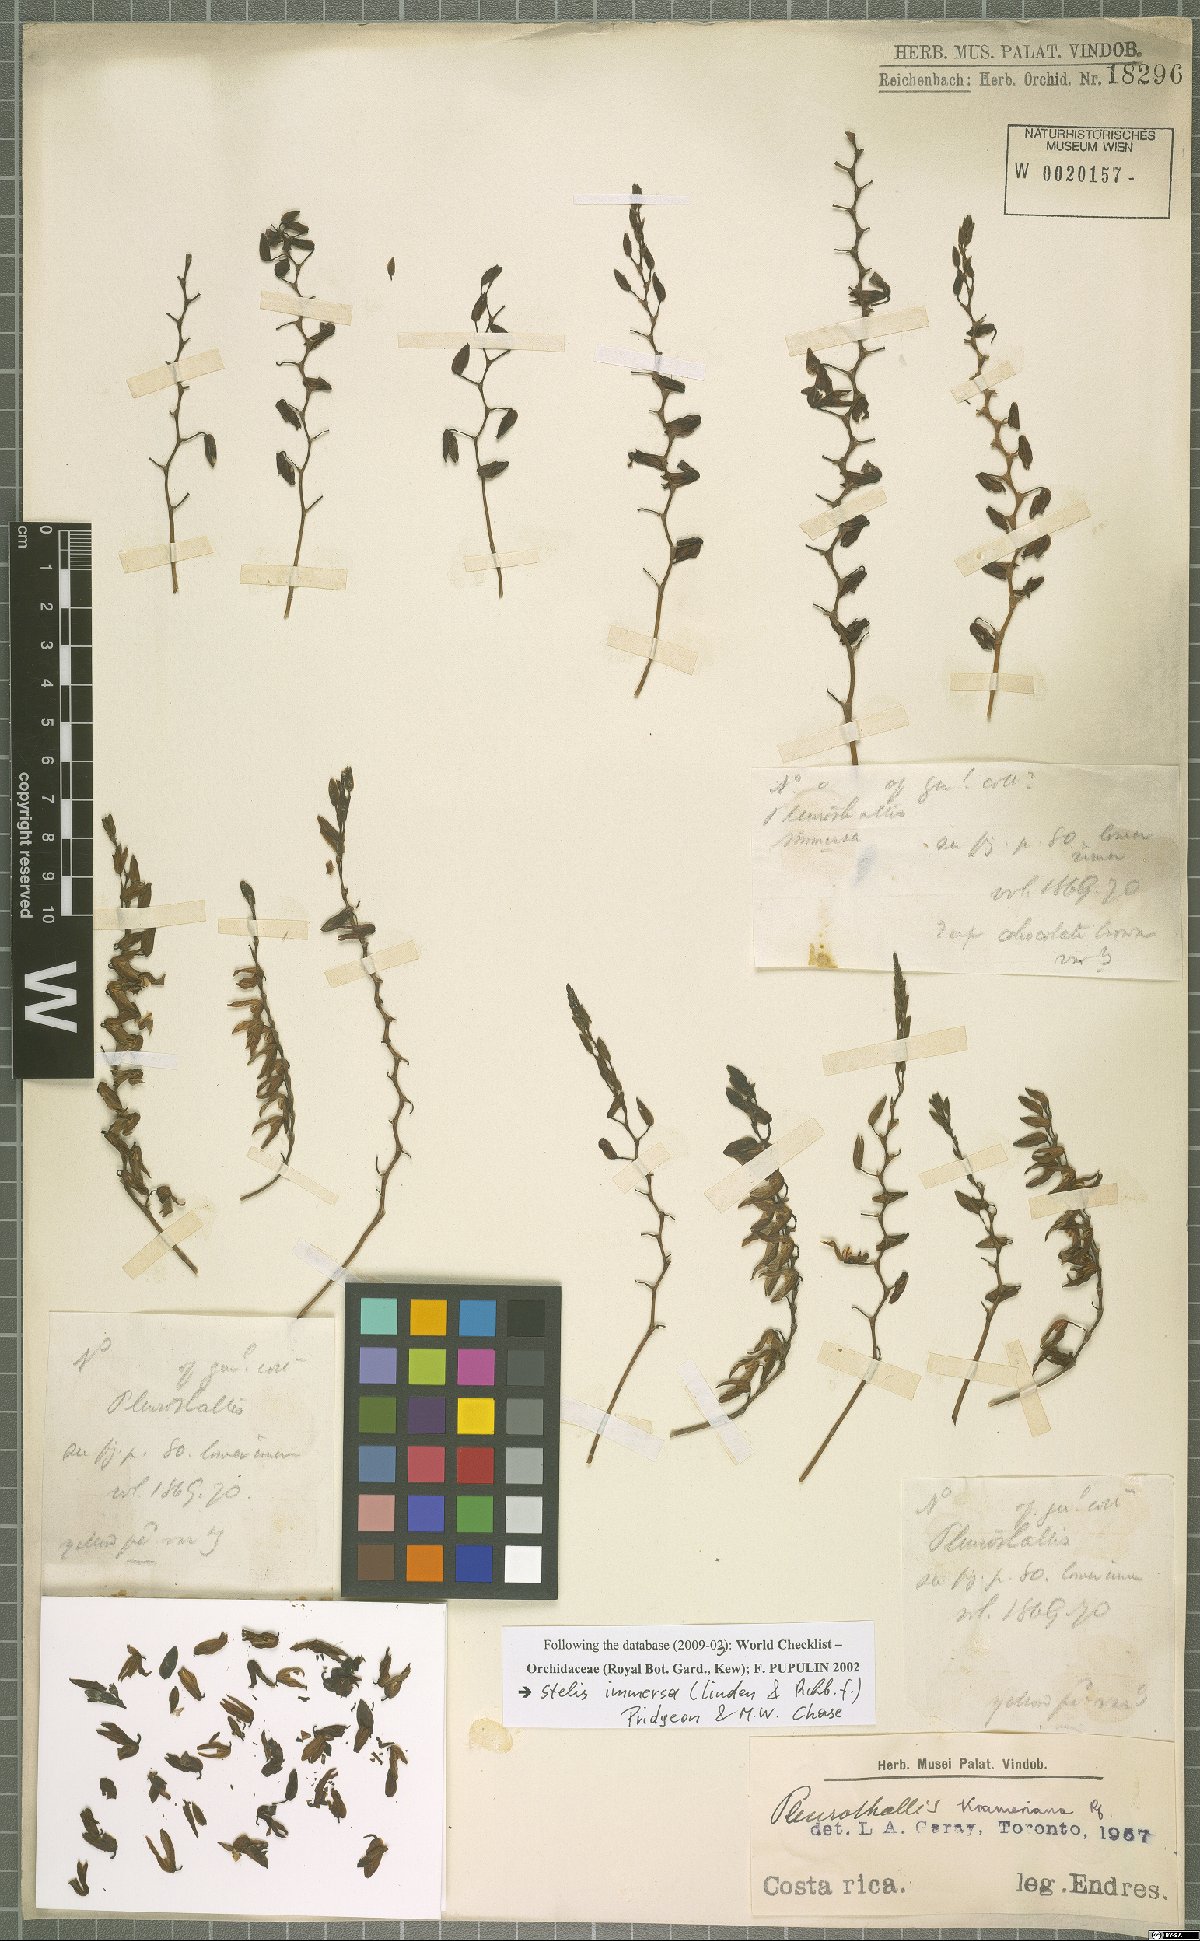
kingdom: Plantae
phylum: Tracheophyta
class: Liliopsida
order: Asparagales
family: Orchidaceae
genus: Stelis
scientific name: Stelis immersa
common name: Sunken pleurothallis
